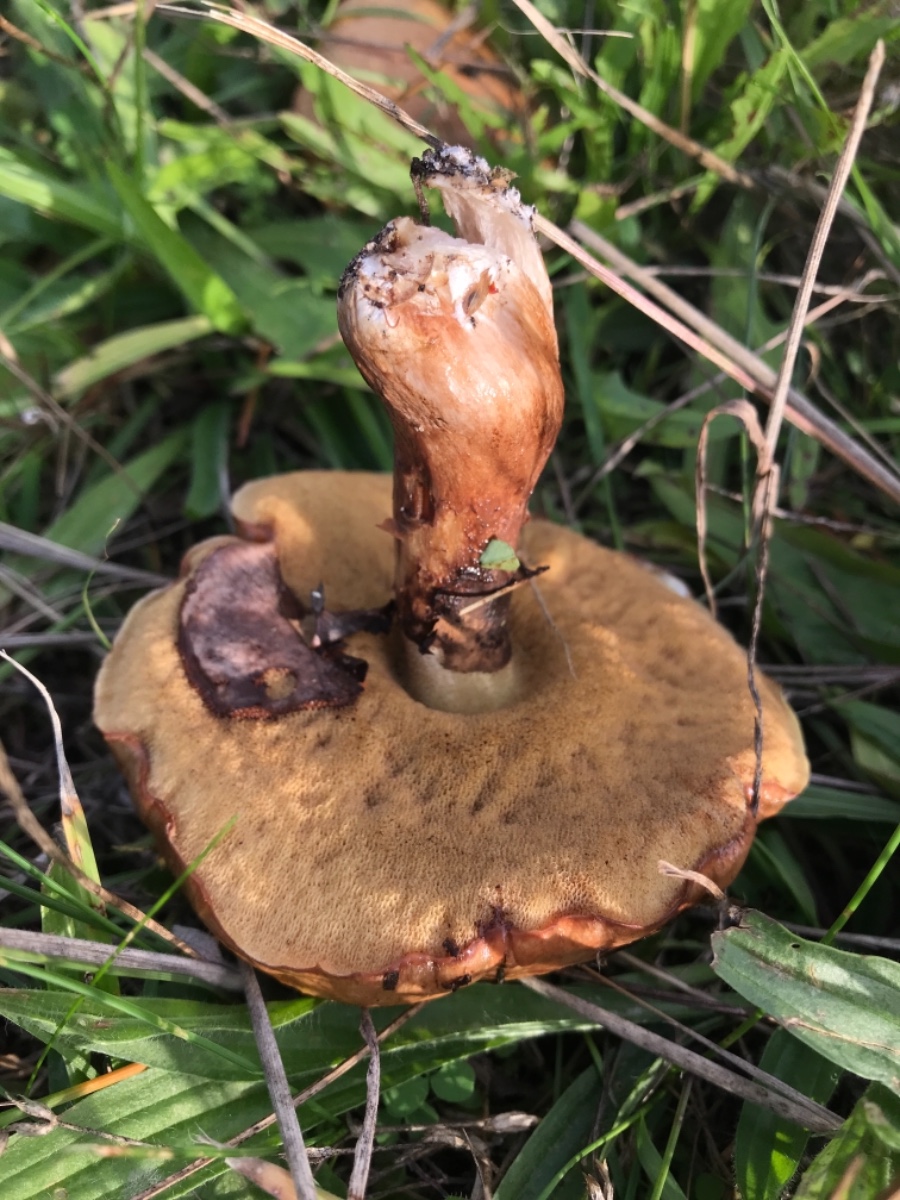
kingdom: Fungi
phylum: Basidiomycota
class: Agaricomycetes
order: Boletales
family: Suillaceae
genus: Suillus
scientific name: Suillus luteus
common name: brungul slimrørhat
